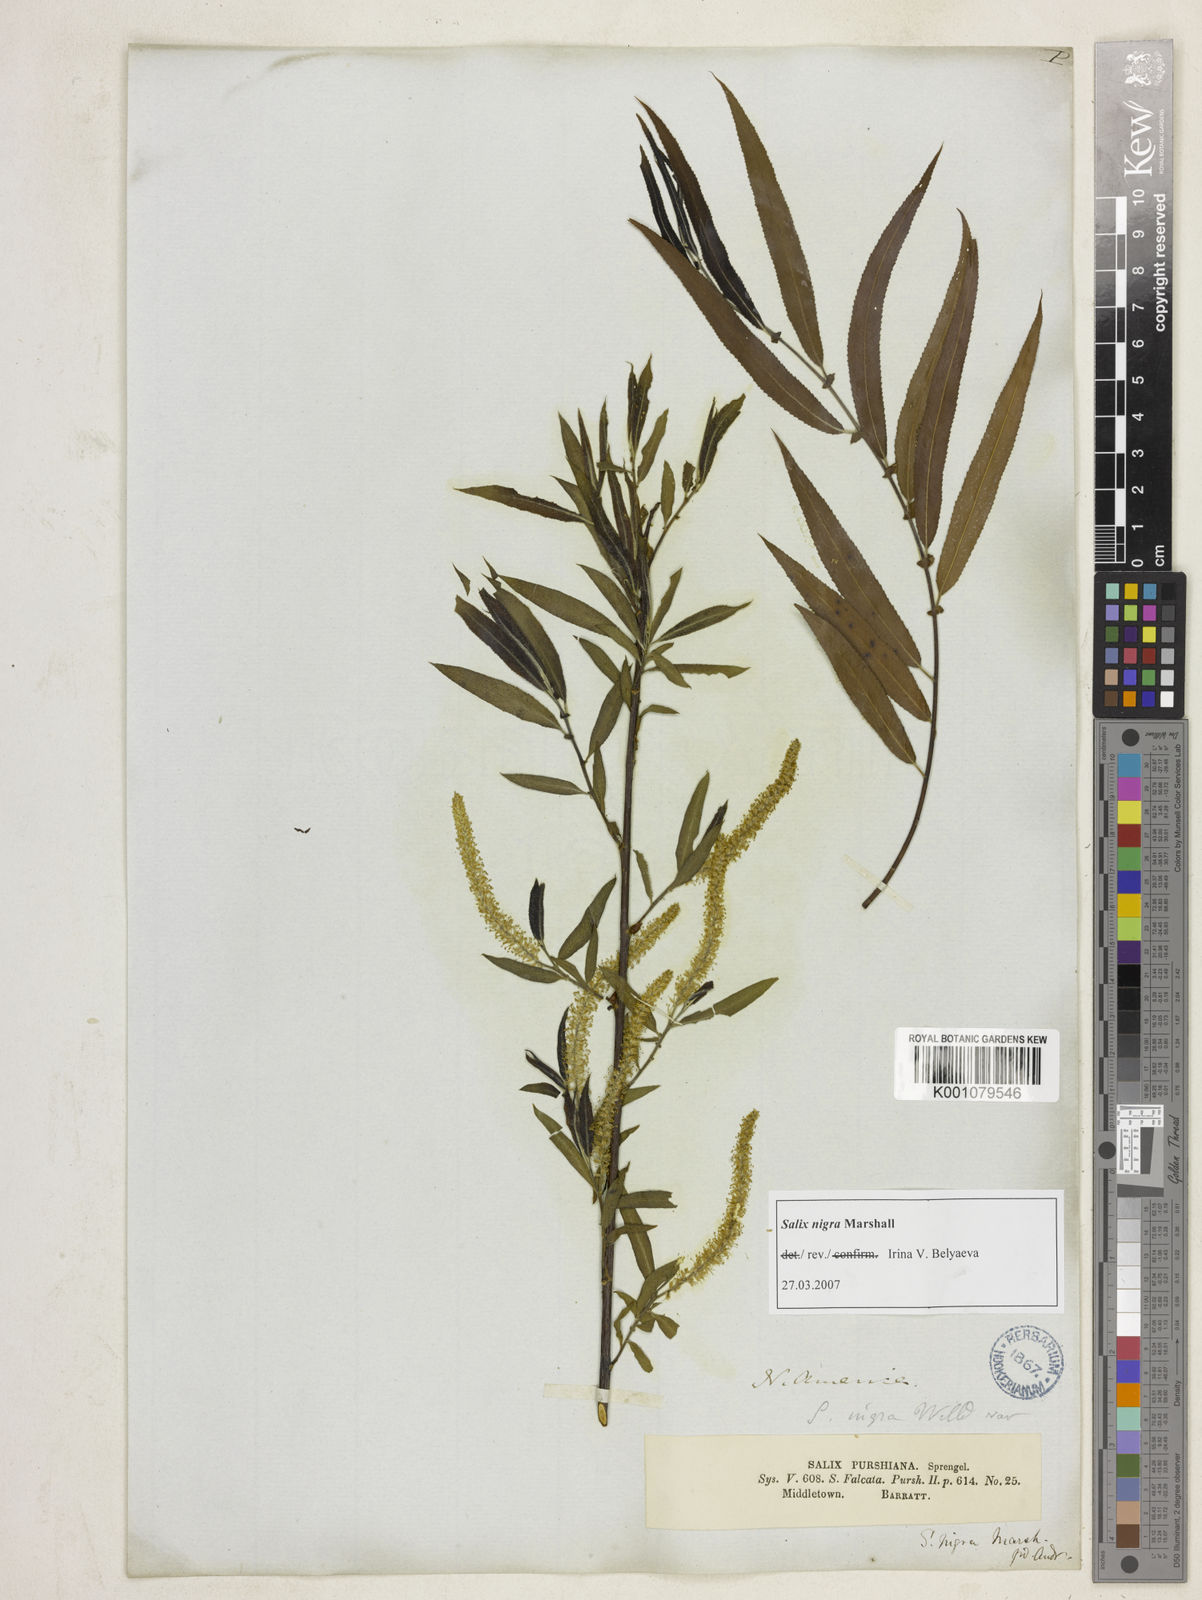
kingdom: Plantae
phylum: Tracheophyta
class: Magnoliopsida
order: Malpighiales
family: Salicaceae
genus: Salix
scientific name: Salix nigra
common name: Black willow
